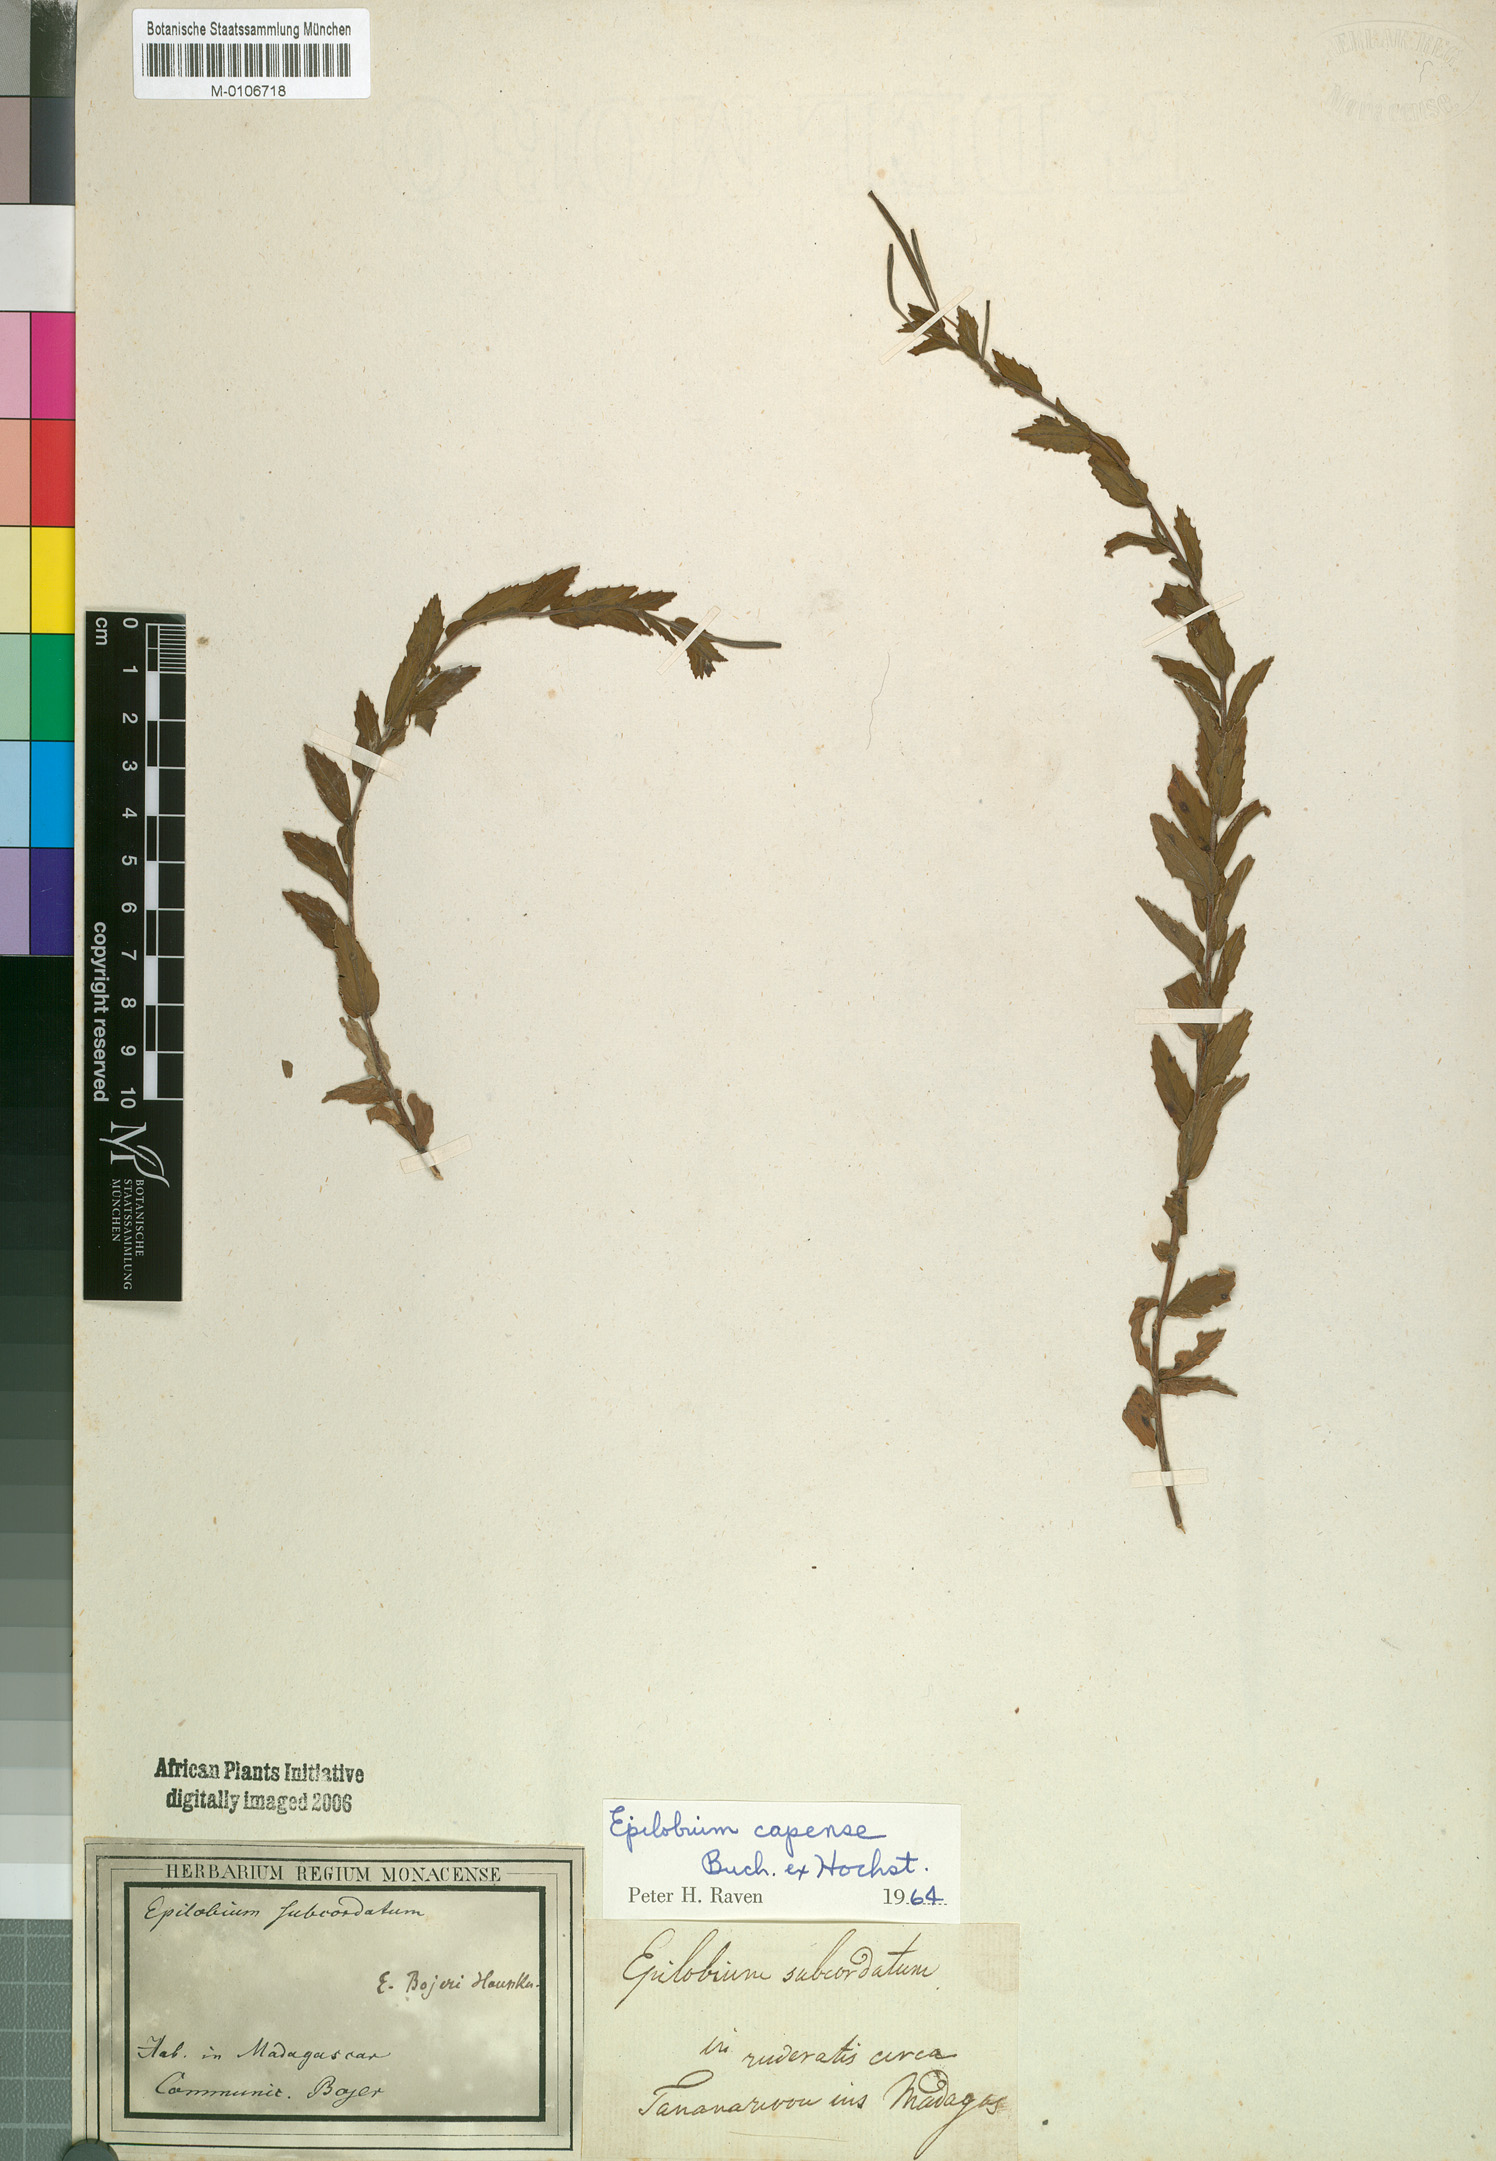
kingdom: Plantae
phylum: Tracheophyta
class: Magnoliopsida
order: Myrtales
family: Onagraceae
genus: Epilobium
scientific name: Epilobium capense
